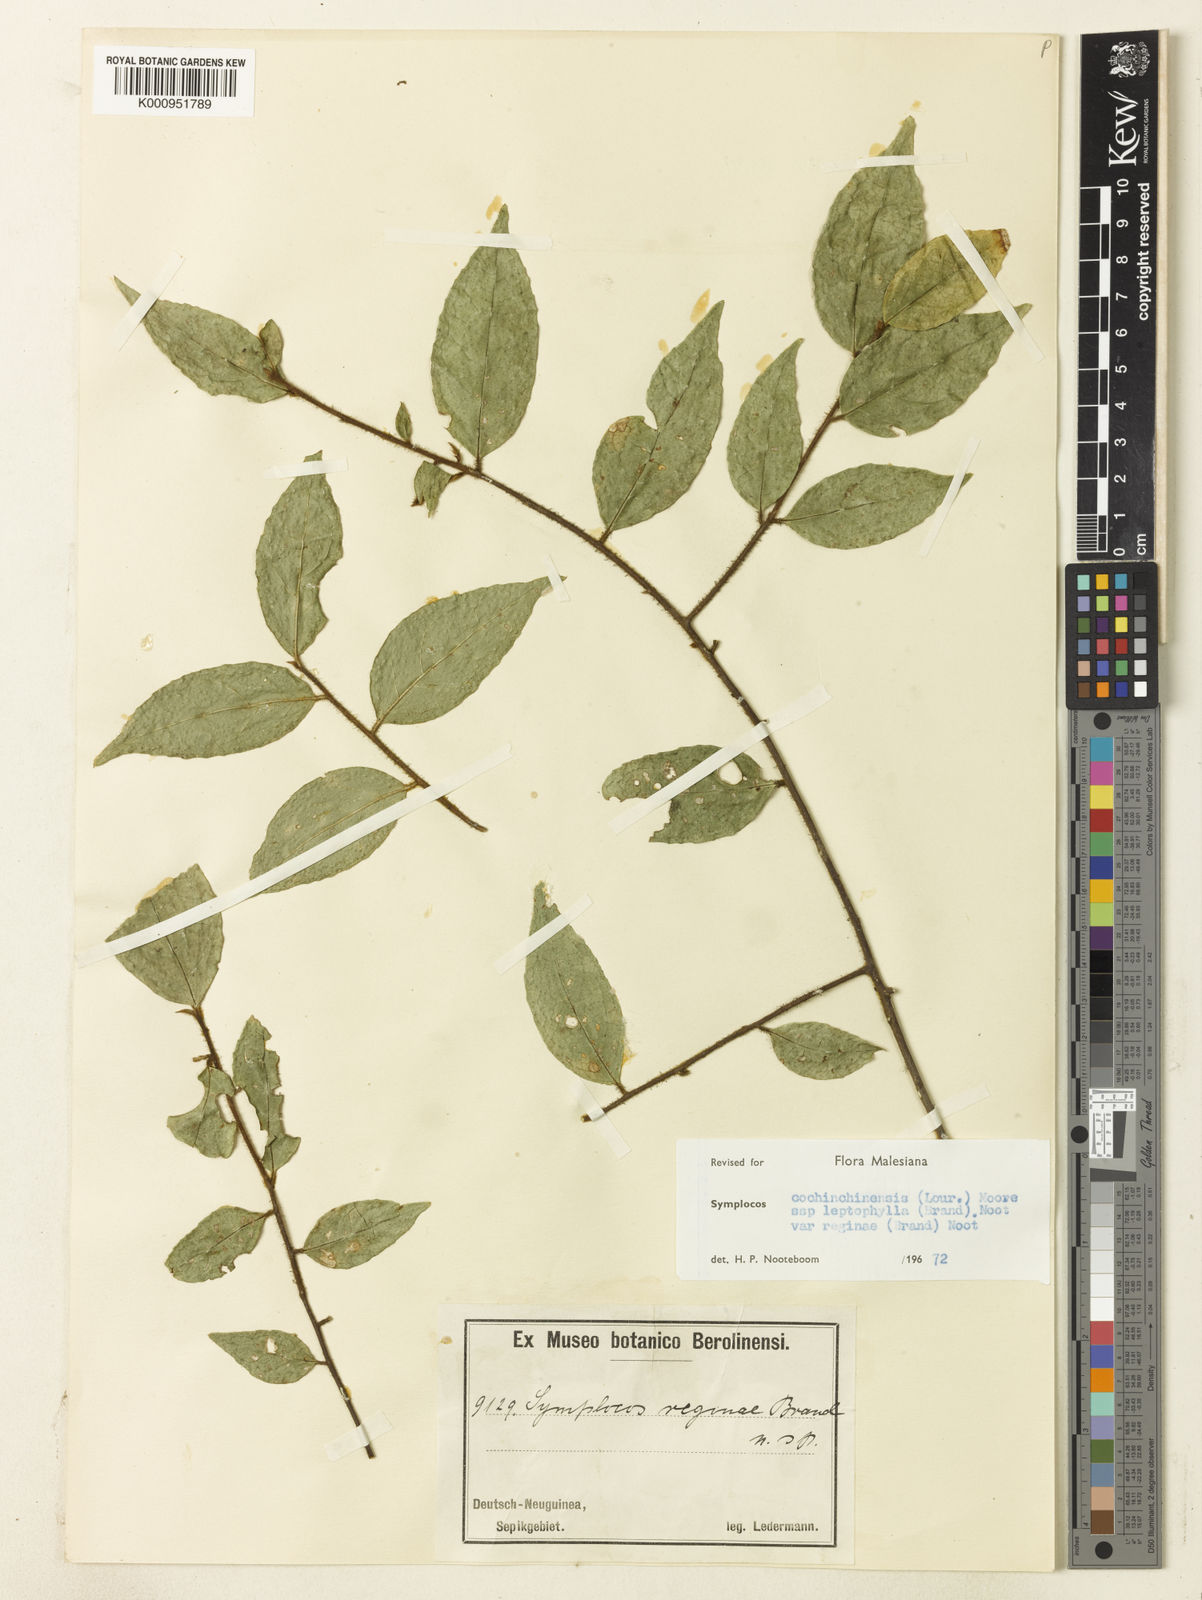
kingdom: Plantae
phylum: Tracheophyta
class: Magnoliopsida
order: Ericales
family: Symplocaceae
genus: Symplocos
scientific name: Symplocos cochinchinensis
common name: Buff hazelwood
